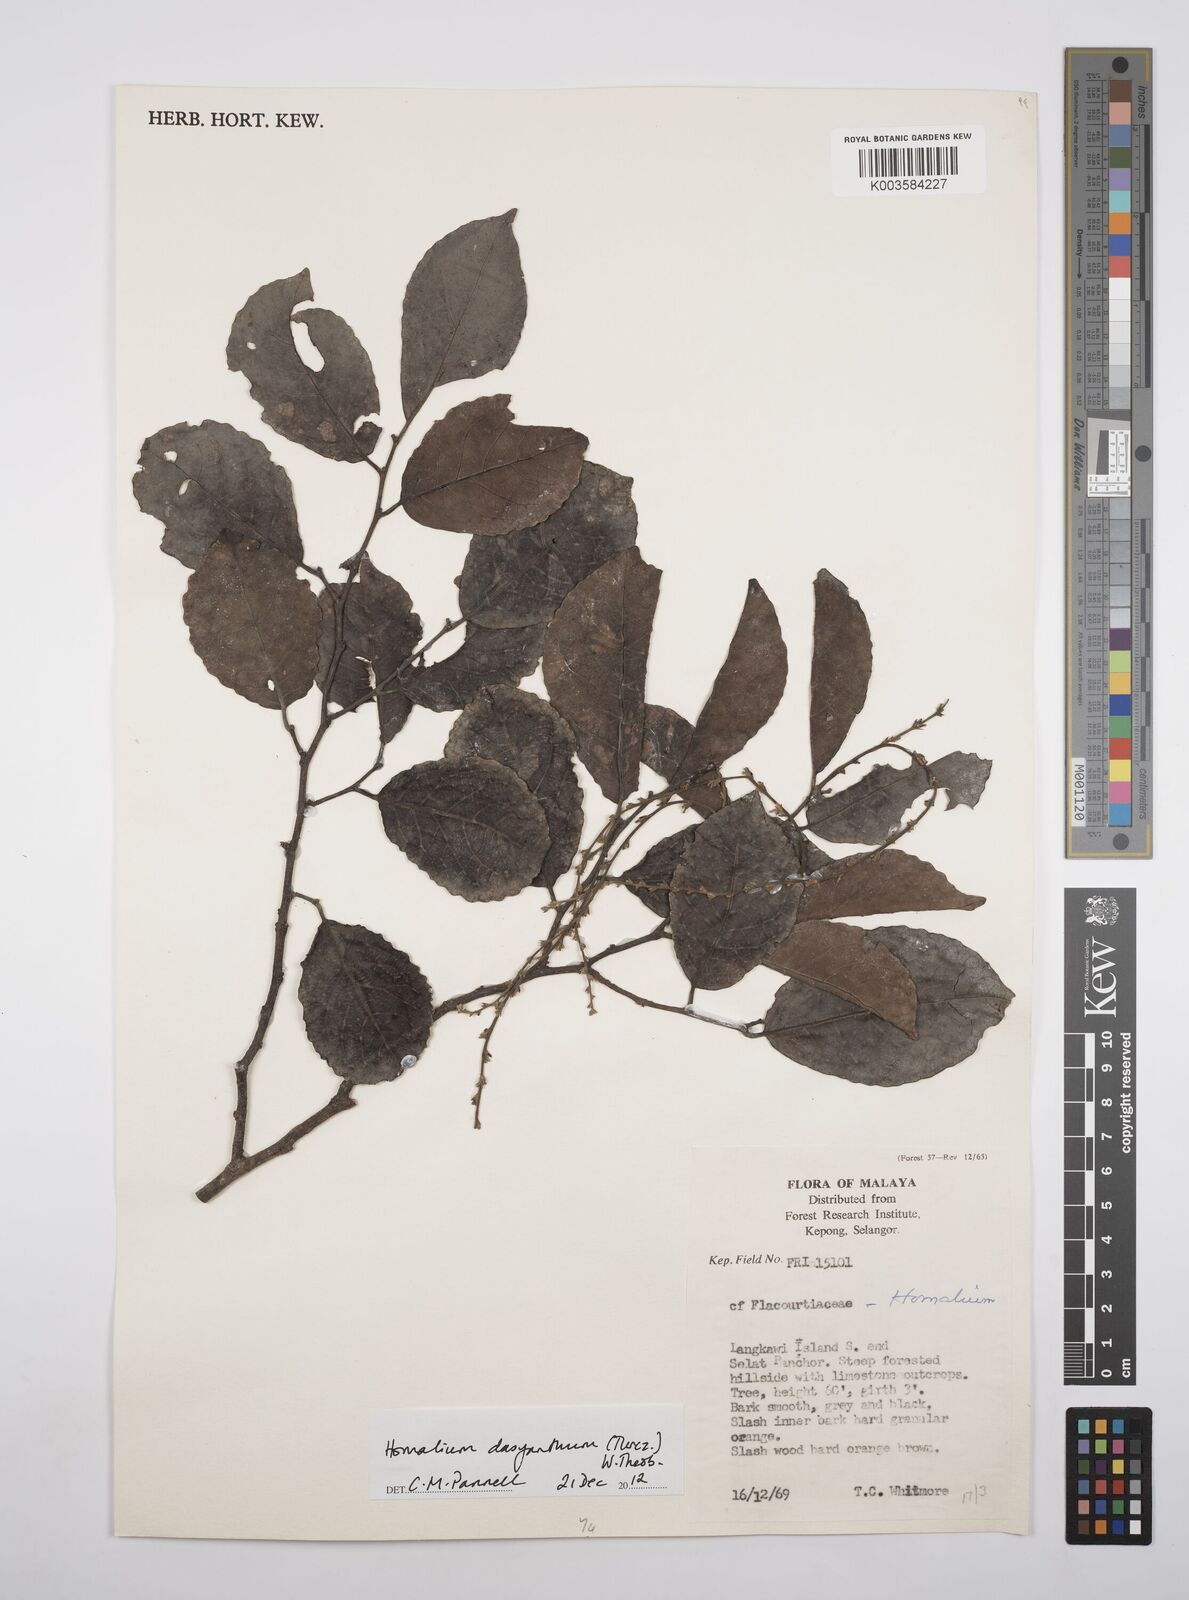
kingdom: Plantae
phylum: Tracheophyta
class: Magnoliopsida
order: Malpighiales
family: Salicaceae
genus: Homalium
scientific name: Homalium dasyanthum
